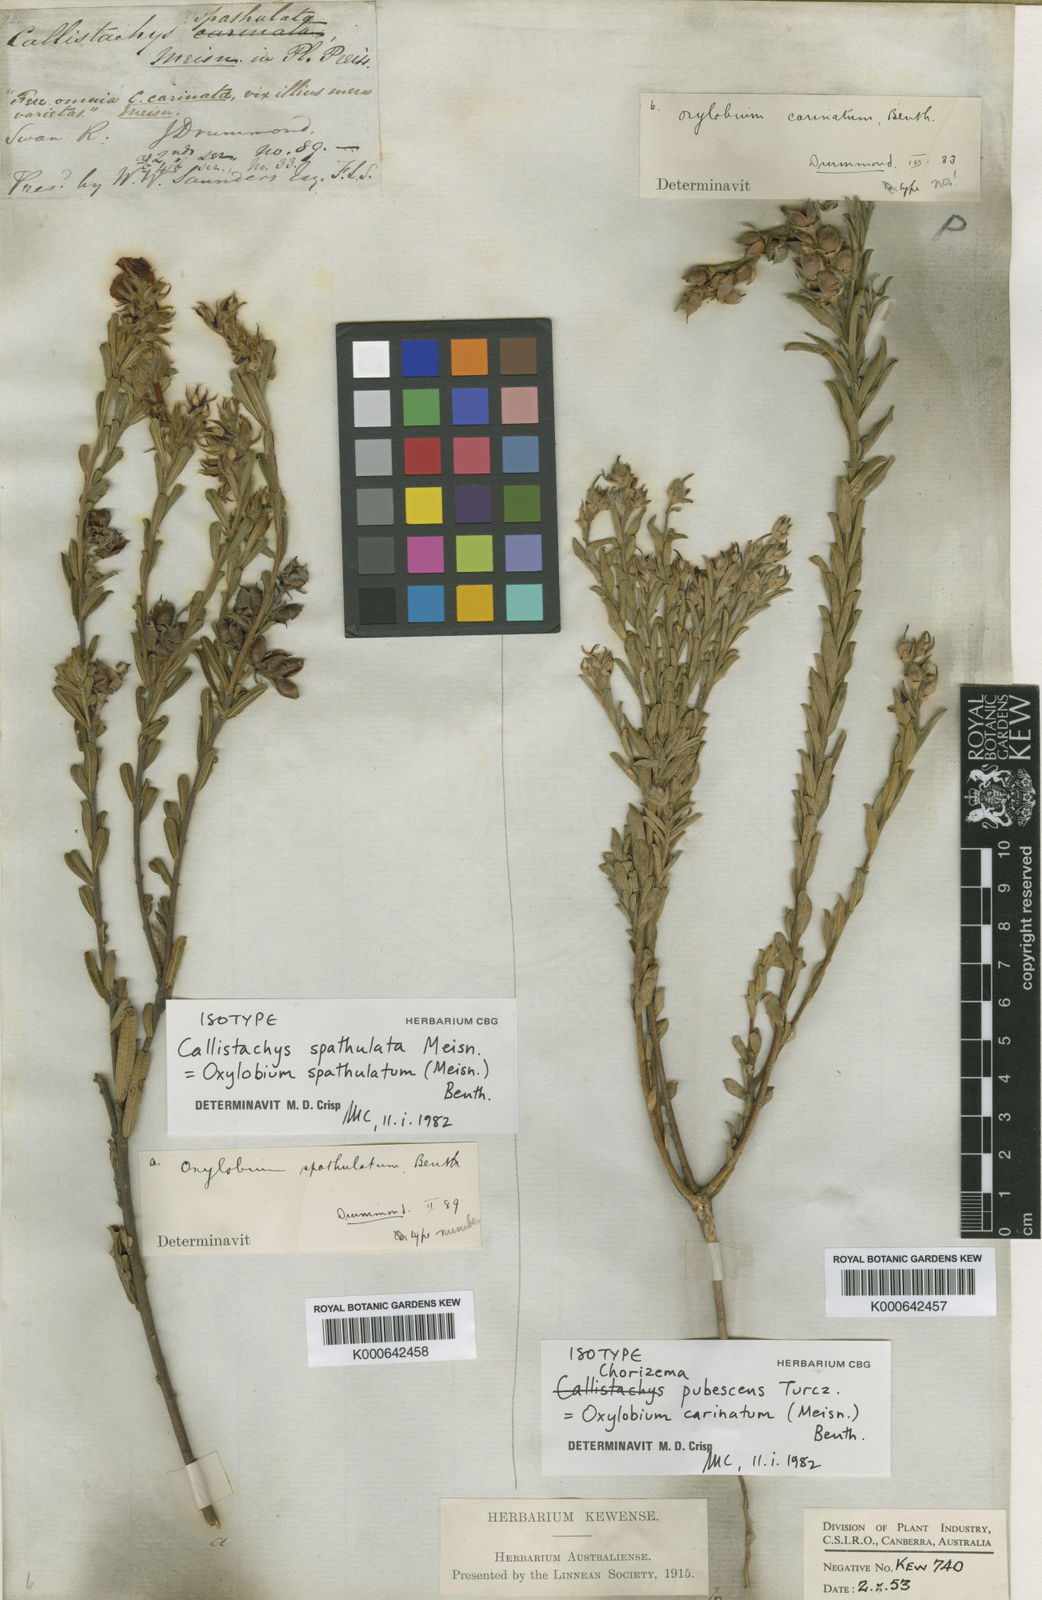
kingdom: Plantae
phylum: Tracheophyta
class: Magnoliopsida
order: Fabales
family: Fabaceae
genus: Chorizema
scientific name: Chorizema carinatum
